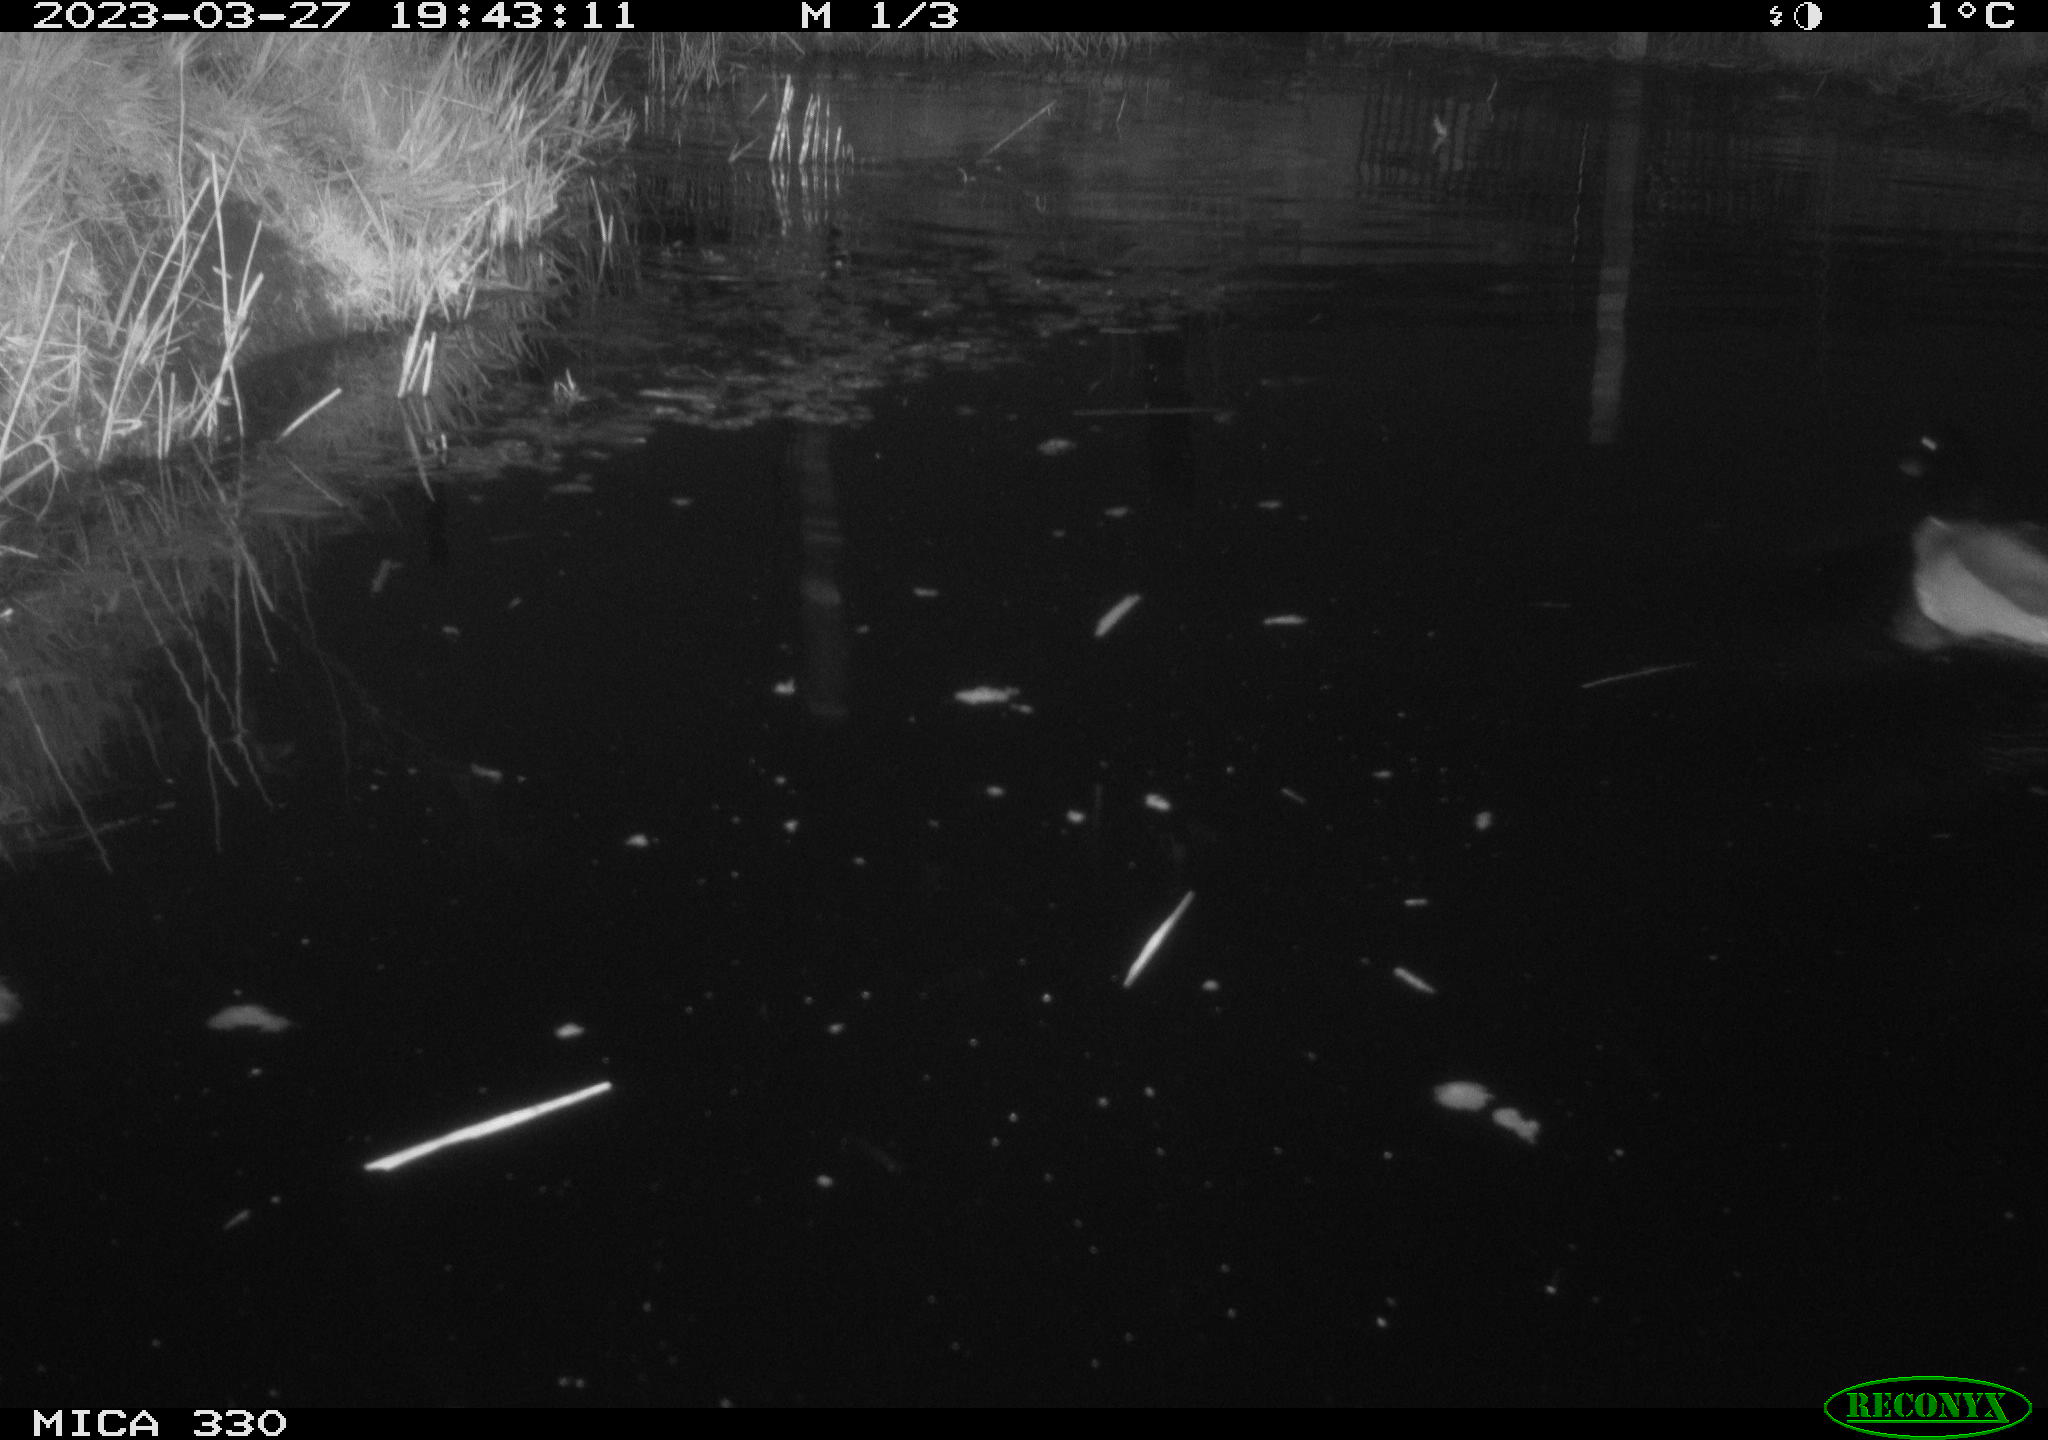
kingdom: Animalia
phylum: Chordata
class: Aves
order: Anseriformes
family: Anatidae
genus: Anas
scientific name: Anas
